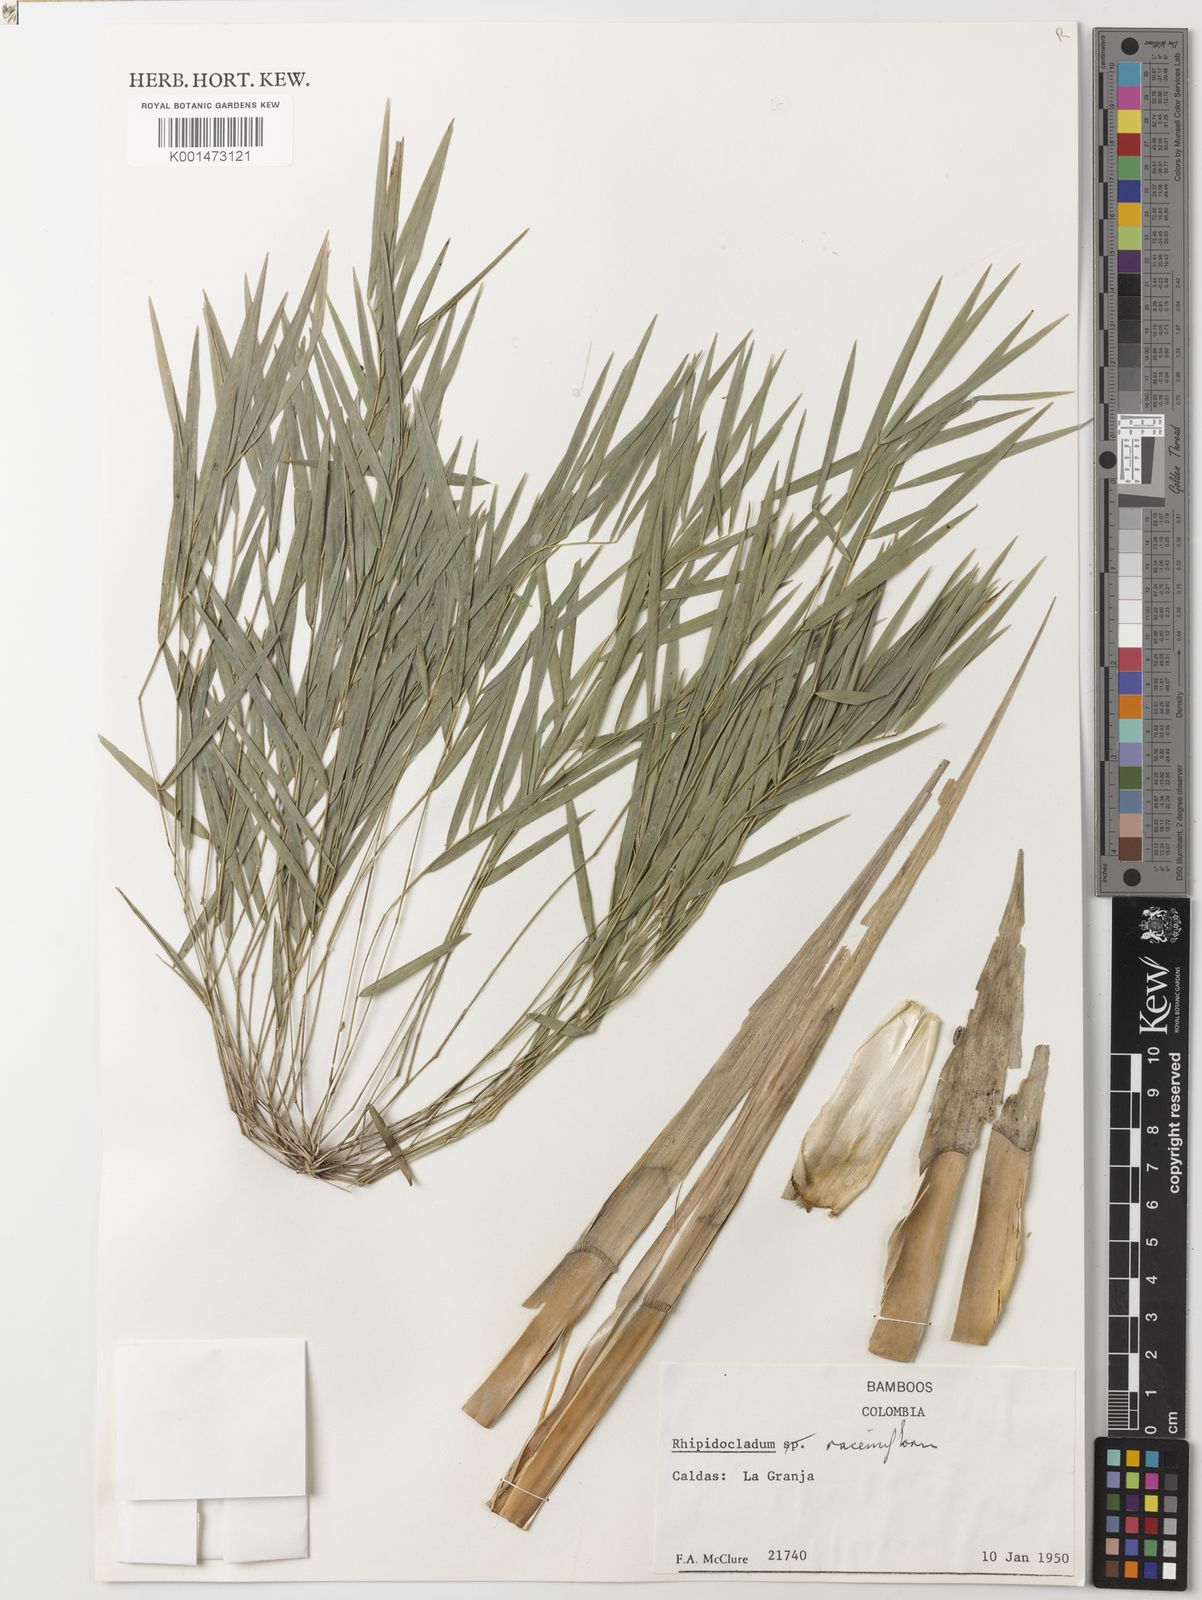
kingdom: Plantae
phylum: Tracheophyta
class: Liliopsida
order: Poales
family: Poaceae
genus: Rhipidocladum
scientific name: Rhipidocladum racemiflorum
